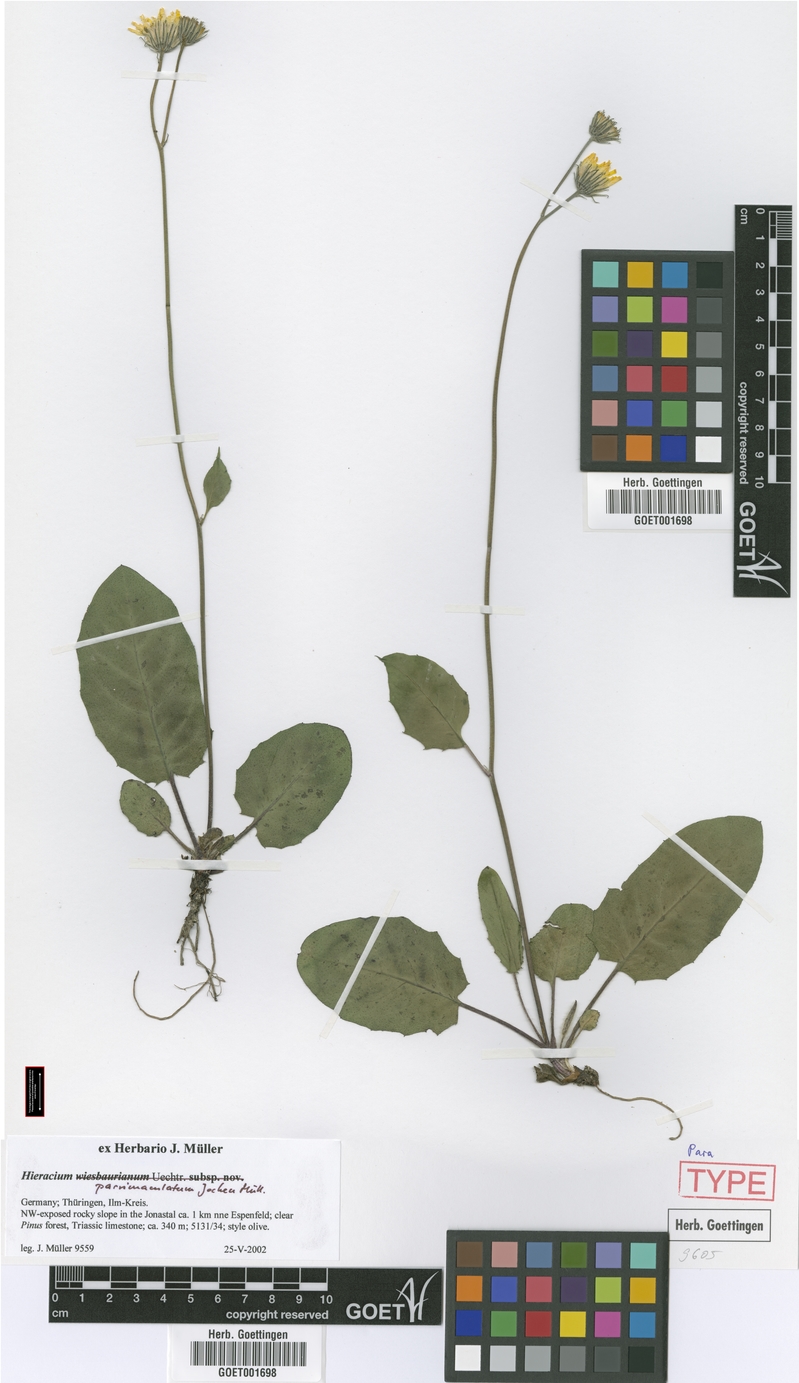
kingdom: Plantae
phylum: Tracheophyta
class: Magnoliopsida
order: Asterales
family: Asteraceae
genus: Hieracium
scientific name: Hieracium hypochoeroides
